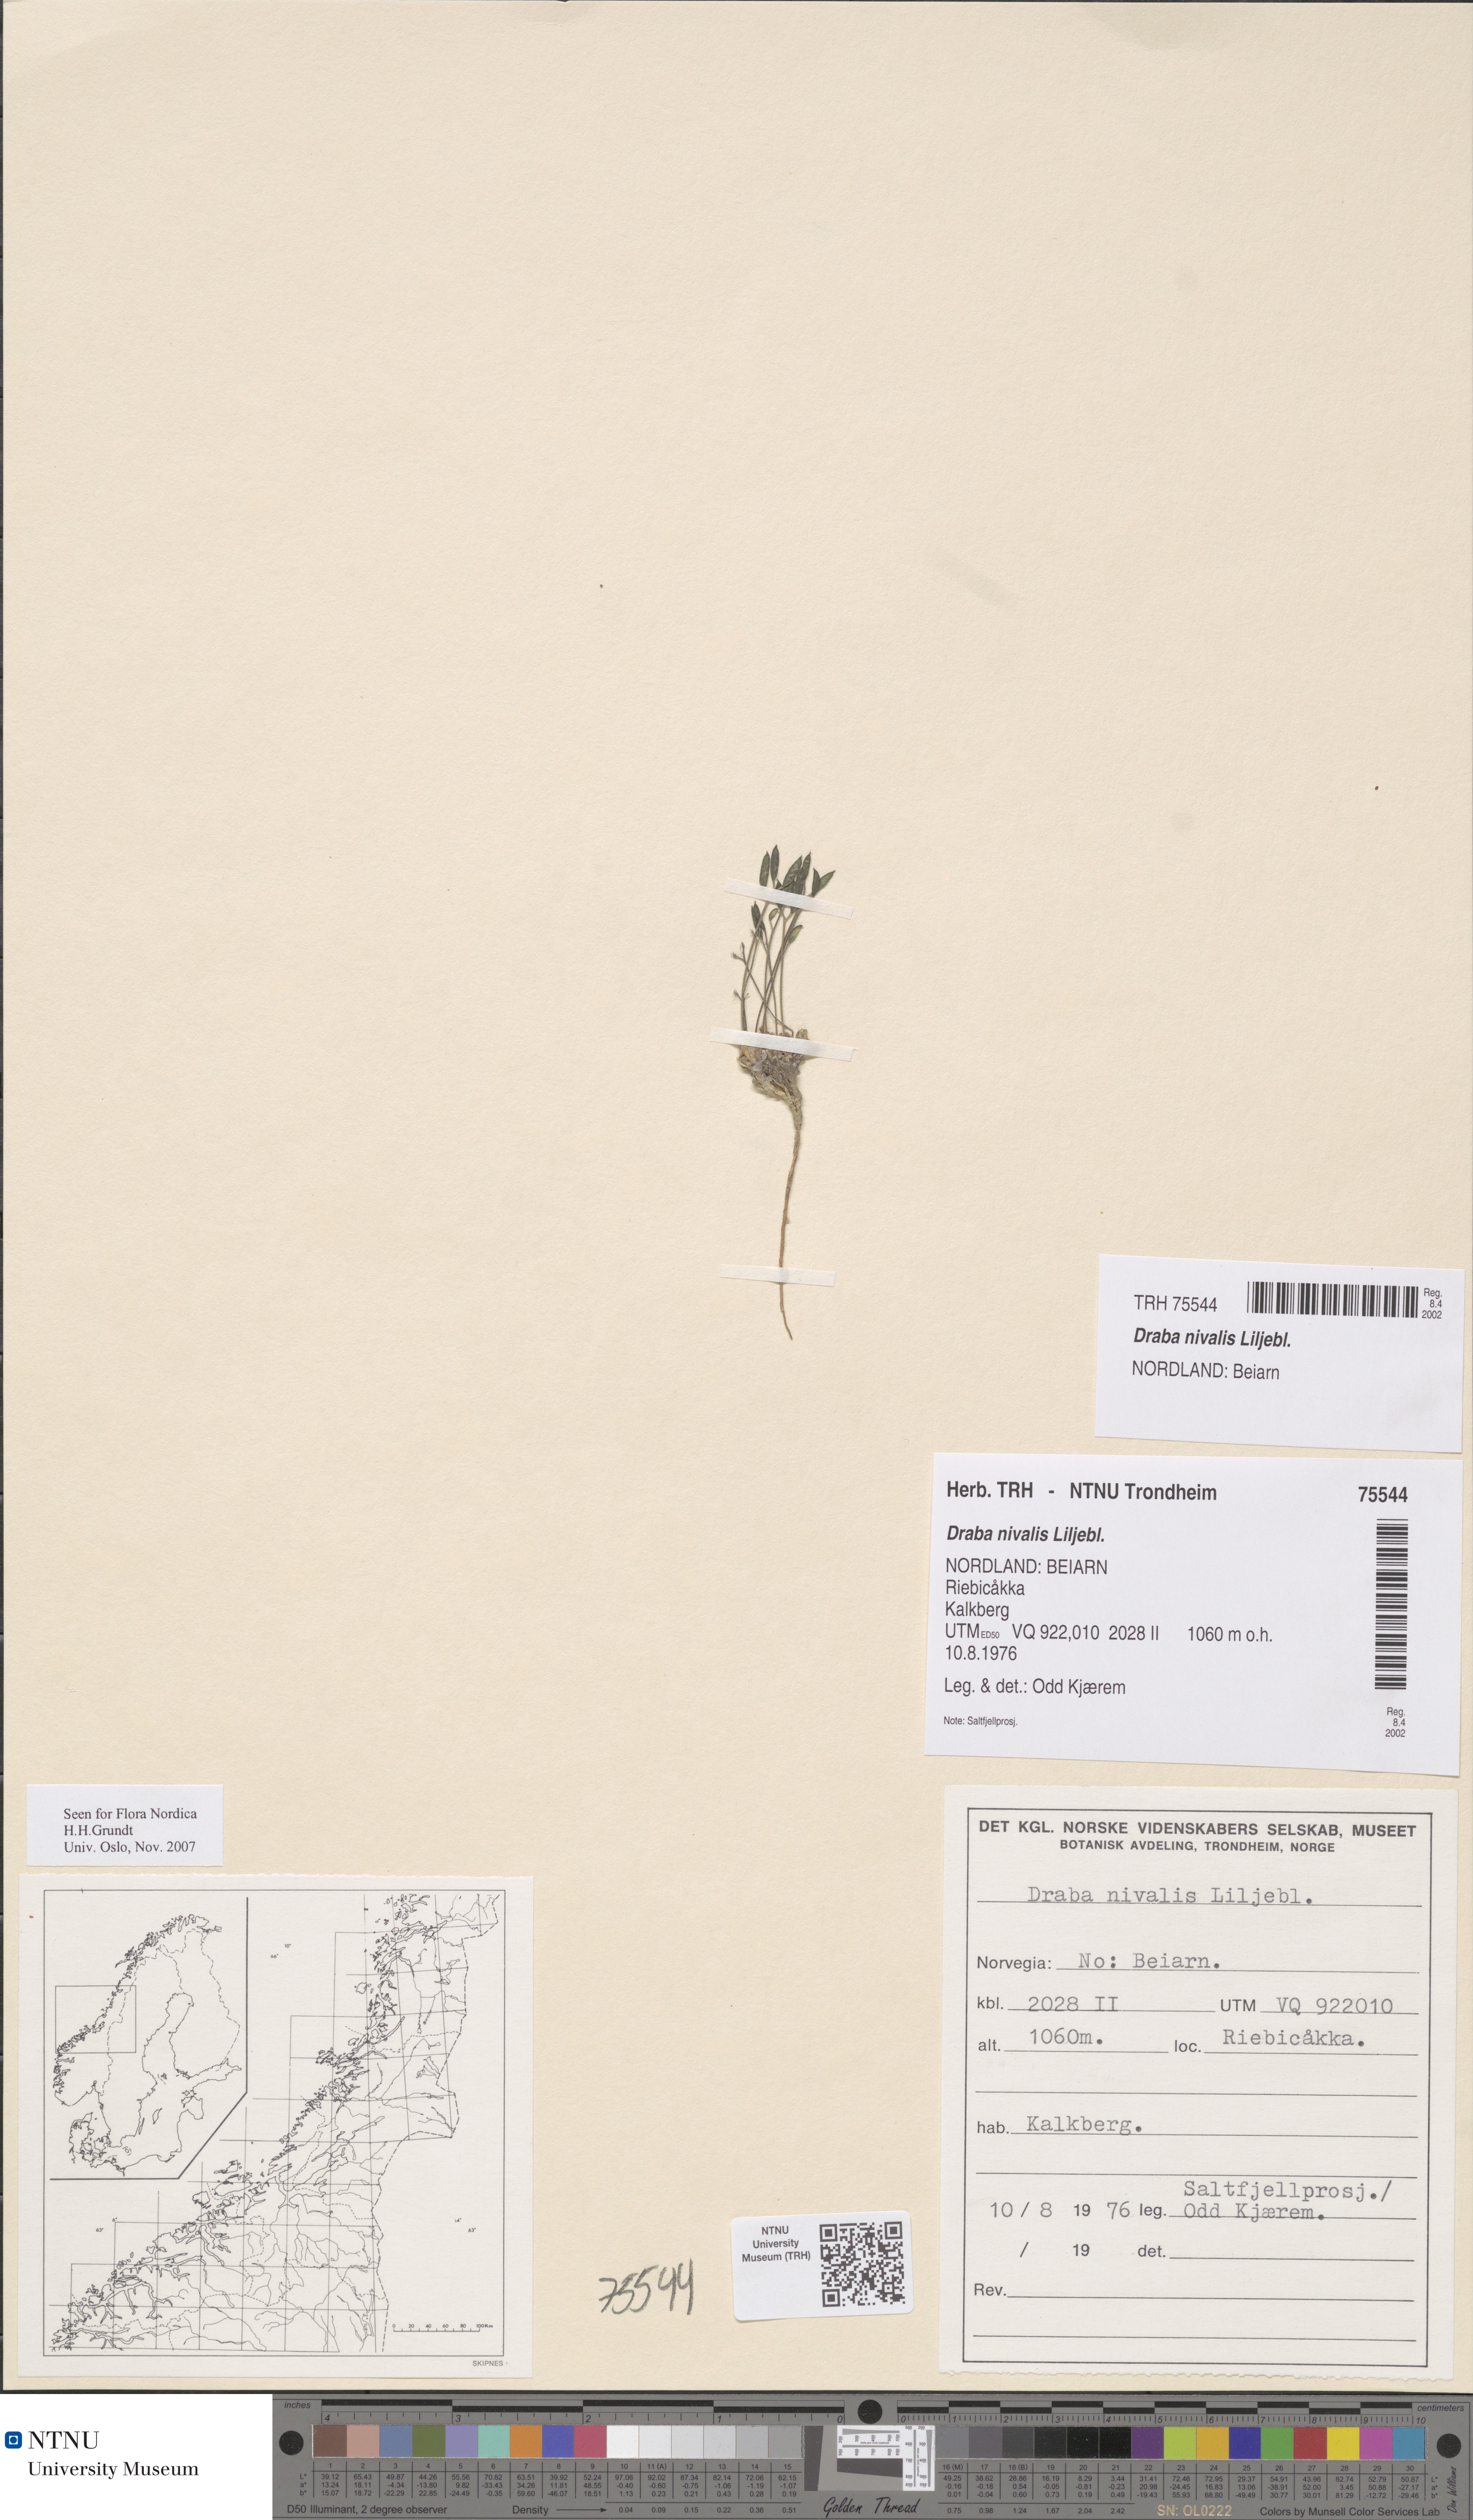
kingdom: Plantae
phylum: Tracheophyta
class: Magnoliopsida
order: Brassicales
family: Brassicaceae
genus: Draba
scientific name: Draba nivalis
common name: Snow draba
